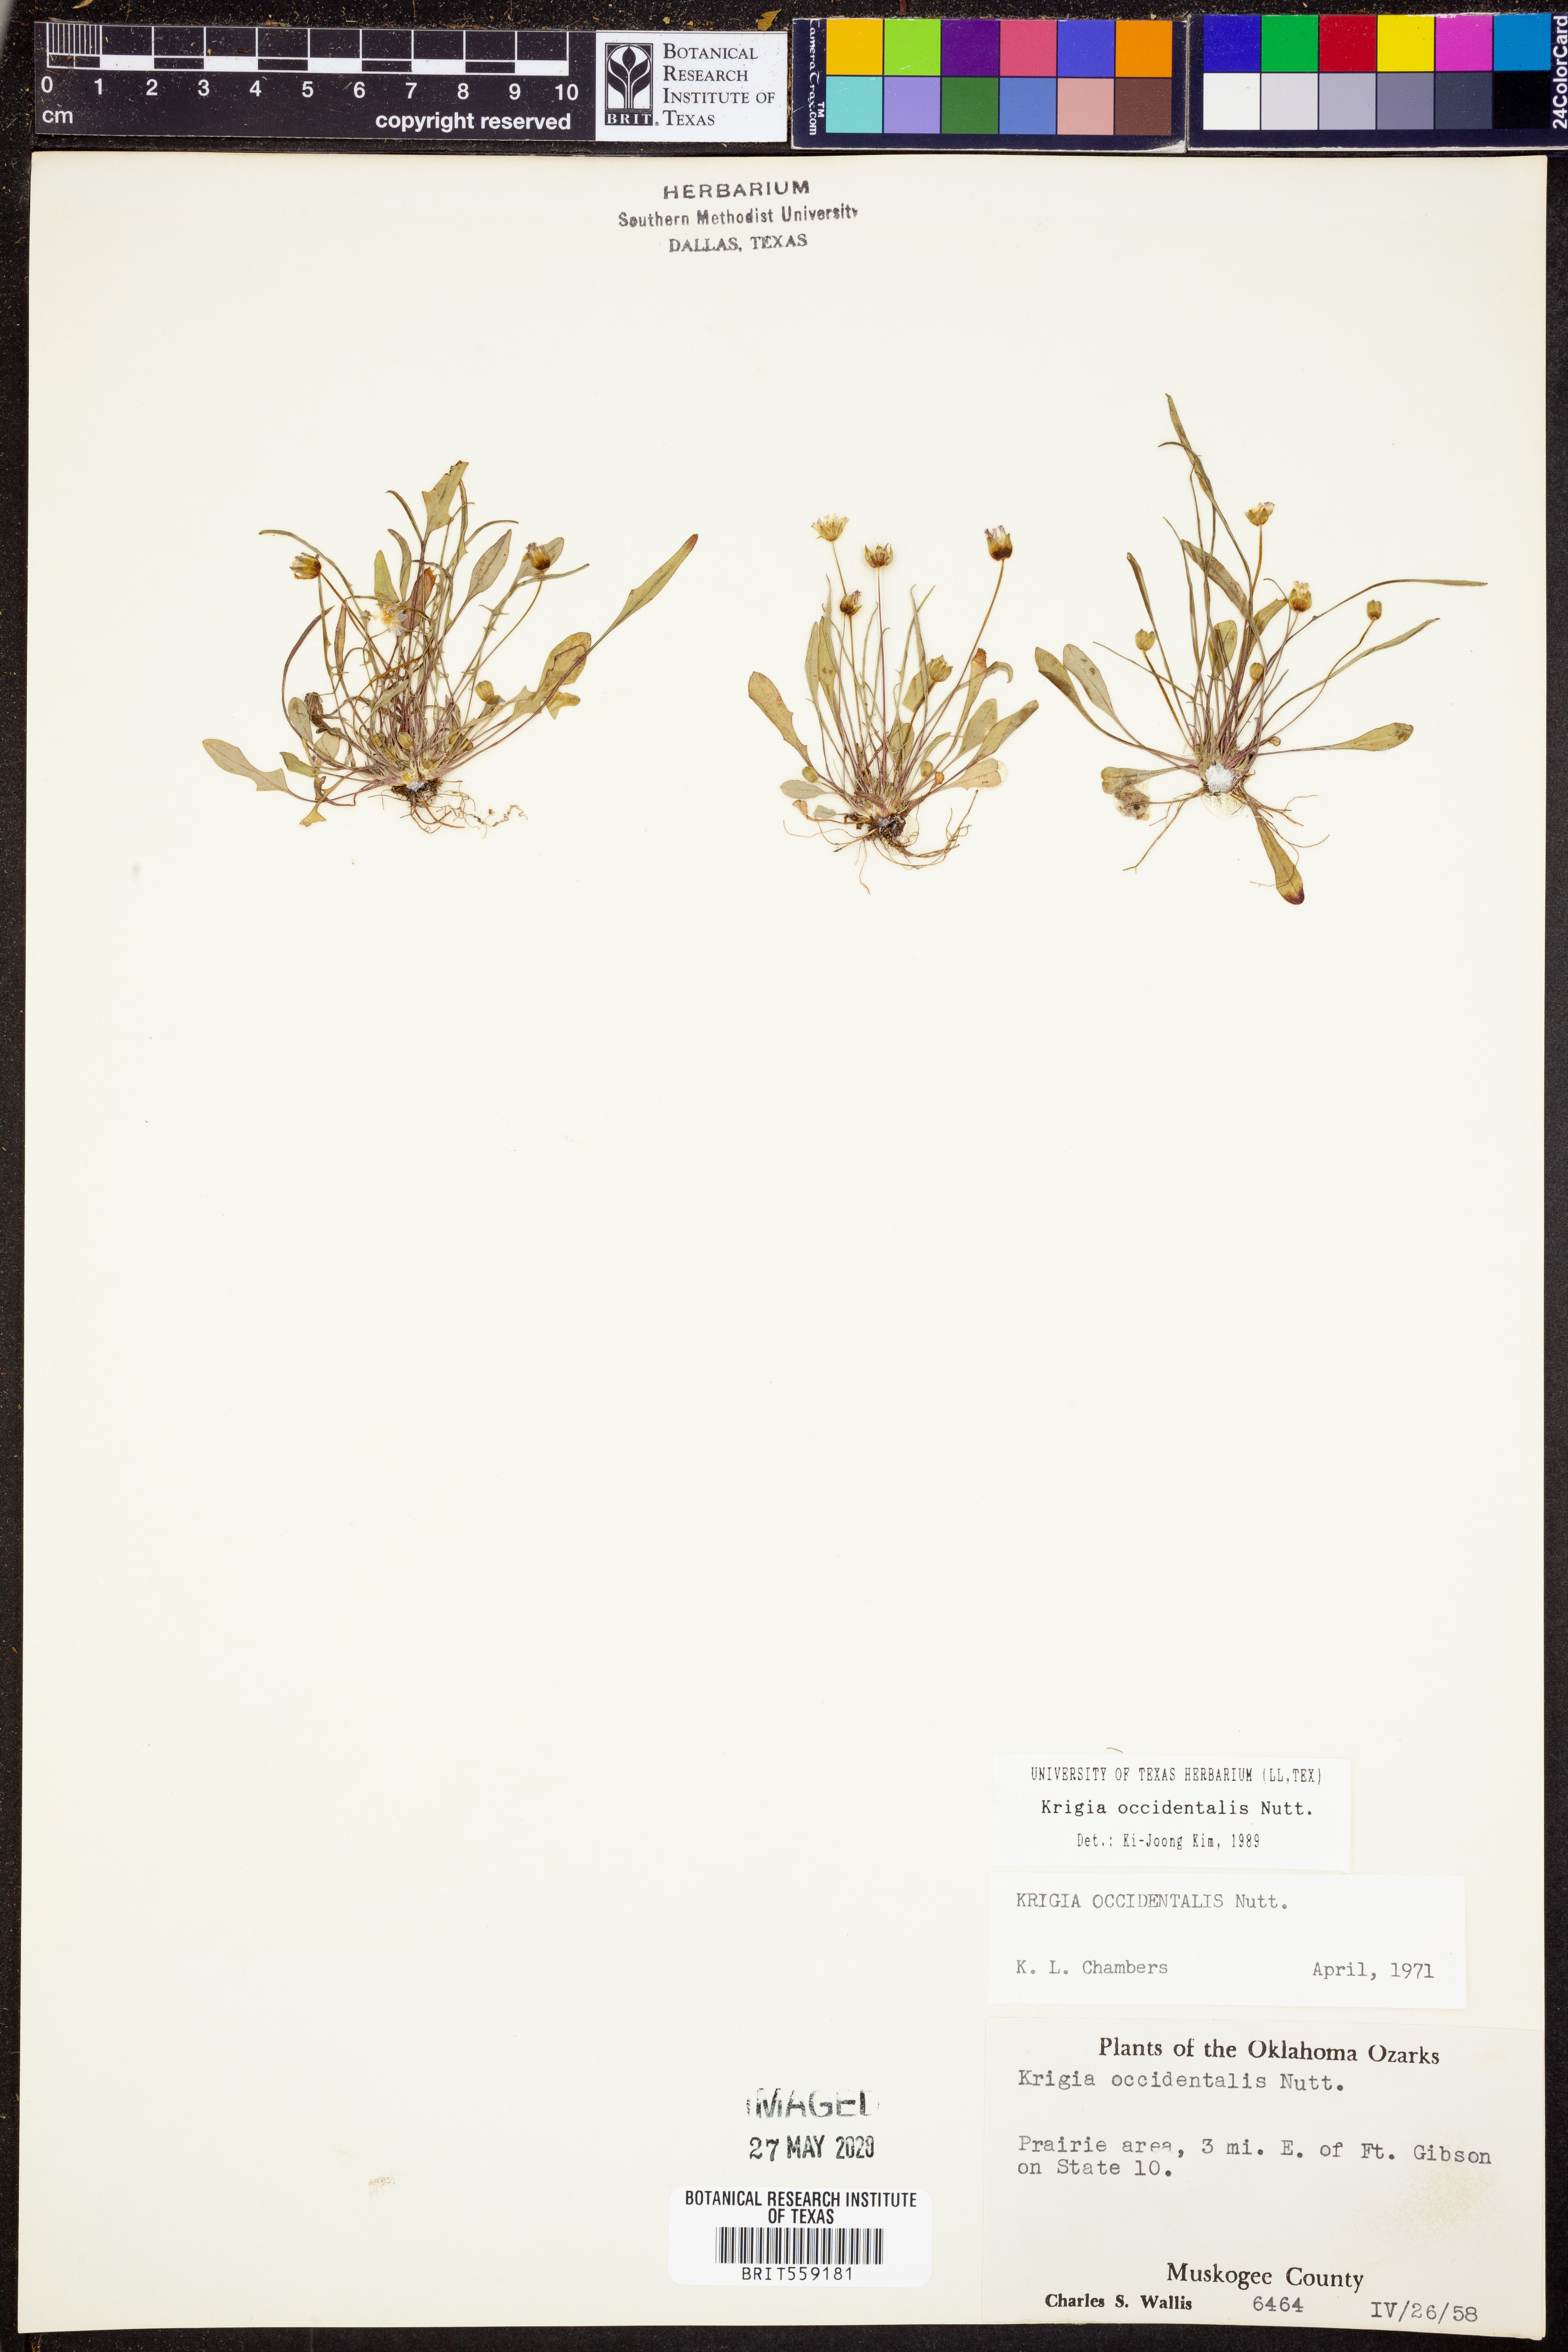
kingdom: Plantae
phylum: Tracheophyta
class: Magnoliopsida
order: Asterales
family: Asteraceae
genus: Krigia
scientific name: Krigia occidentalis
